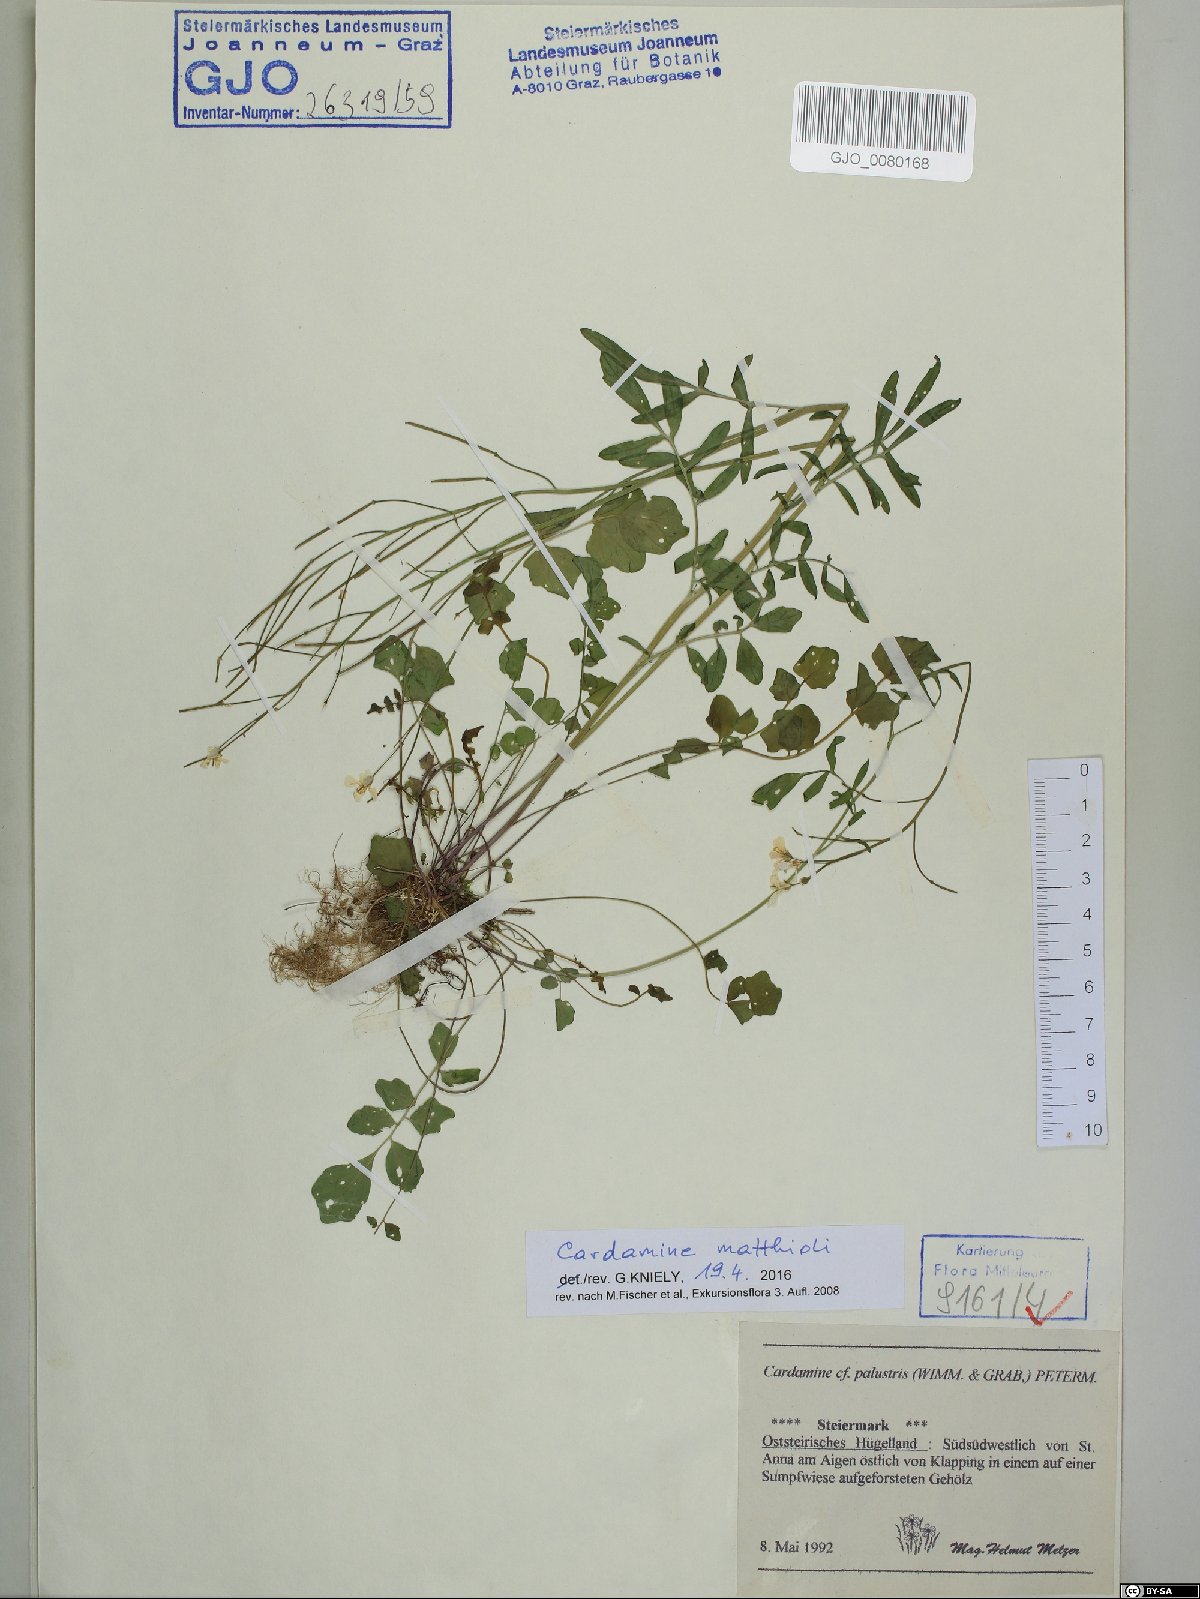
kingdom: Plantae
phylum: Tracheophyta
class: Magnoliopsida
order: Brassicales
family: Brassicaceae
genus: Cardamine
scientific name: Cardamine matthioli
